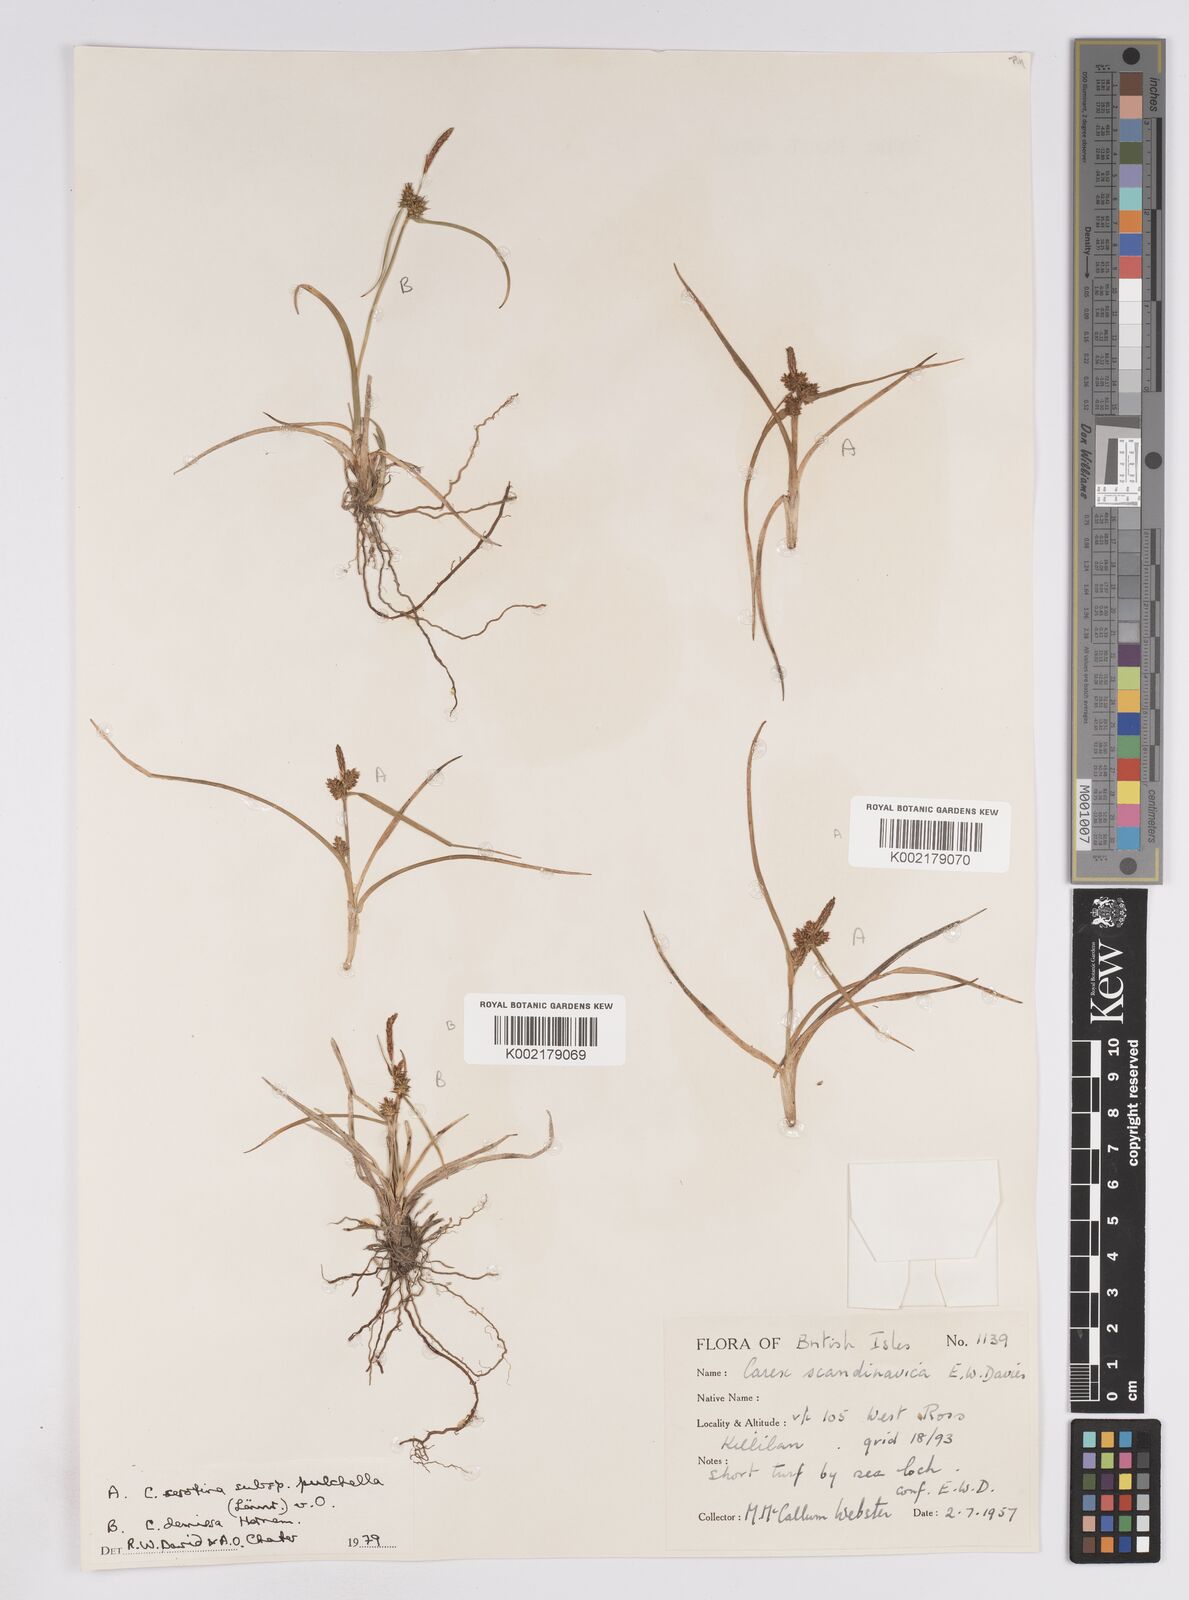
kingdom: Plantae
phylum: Tracheophyta
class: Liliopsida
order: Poales
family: Cyperaceae
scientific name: Cyperaceae
